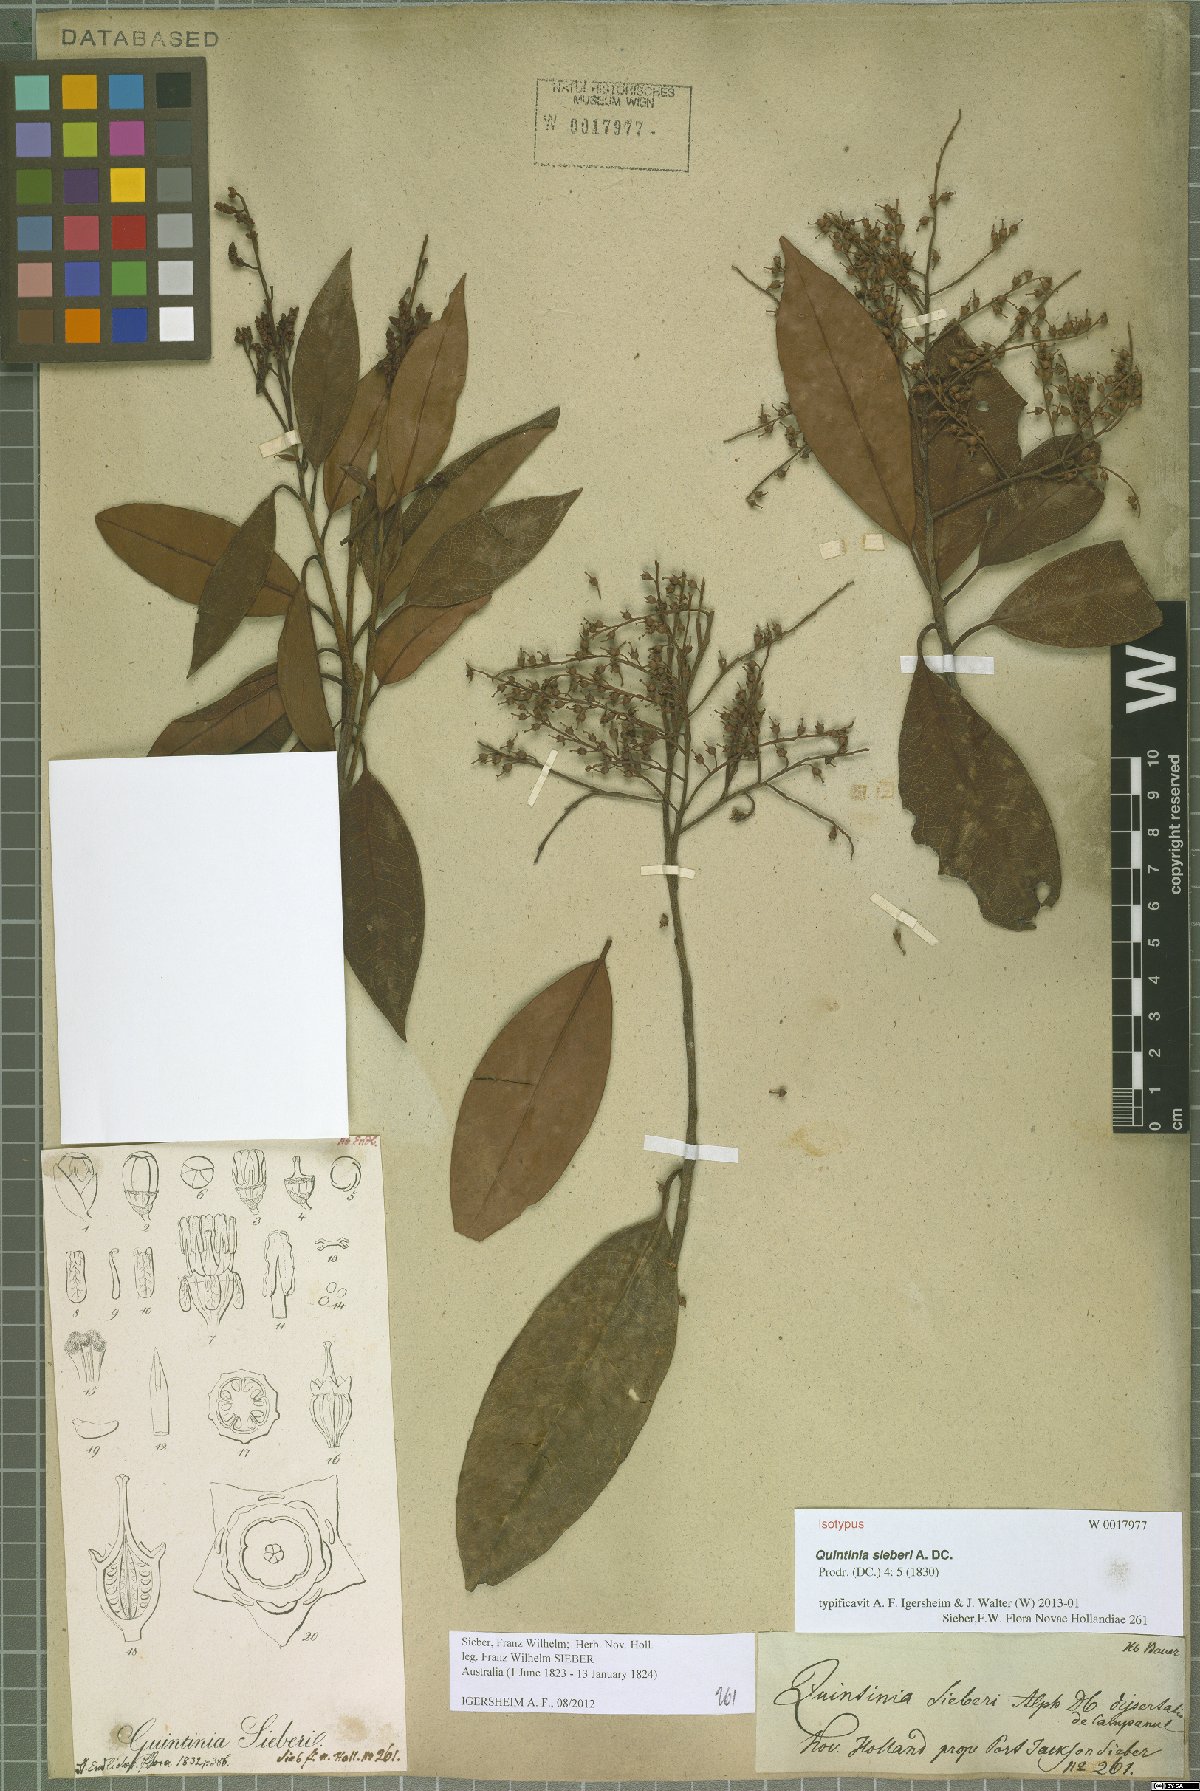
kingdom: Plantae
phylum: Tracheophyta
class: Magnoliopsida
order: Paracryphiales
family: Paracryphiaceae
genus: Quintinia
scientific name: Quintinia sieberi
